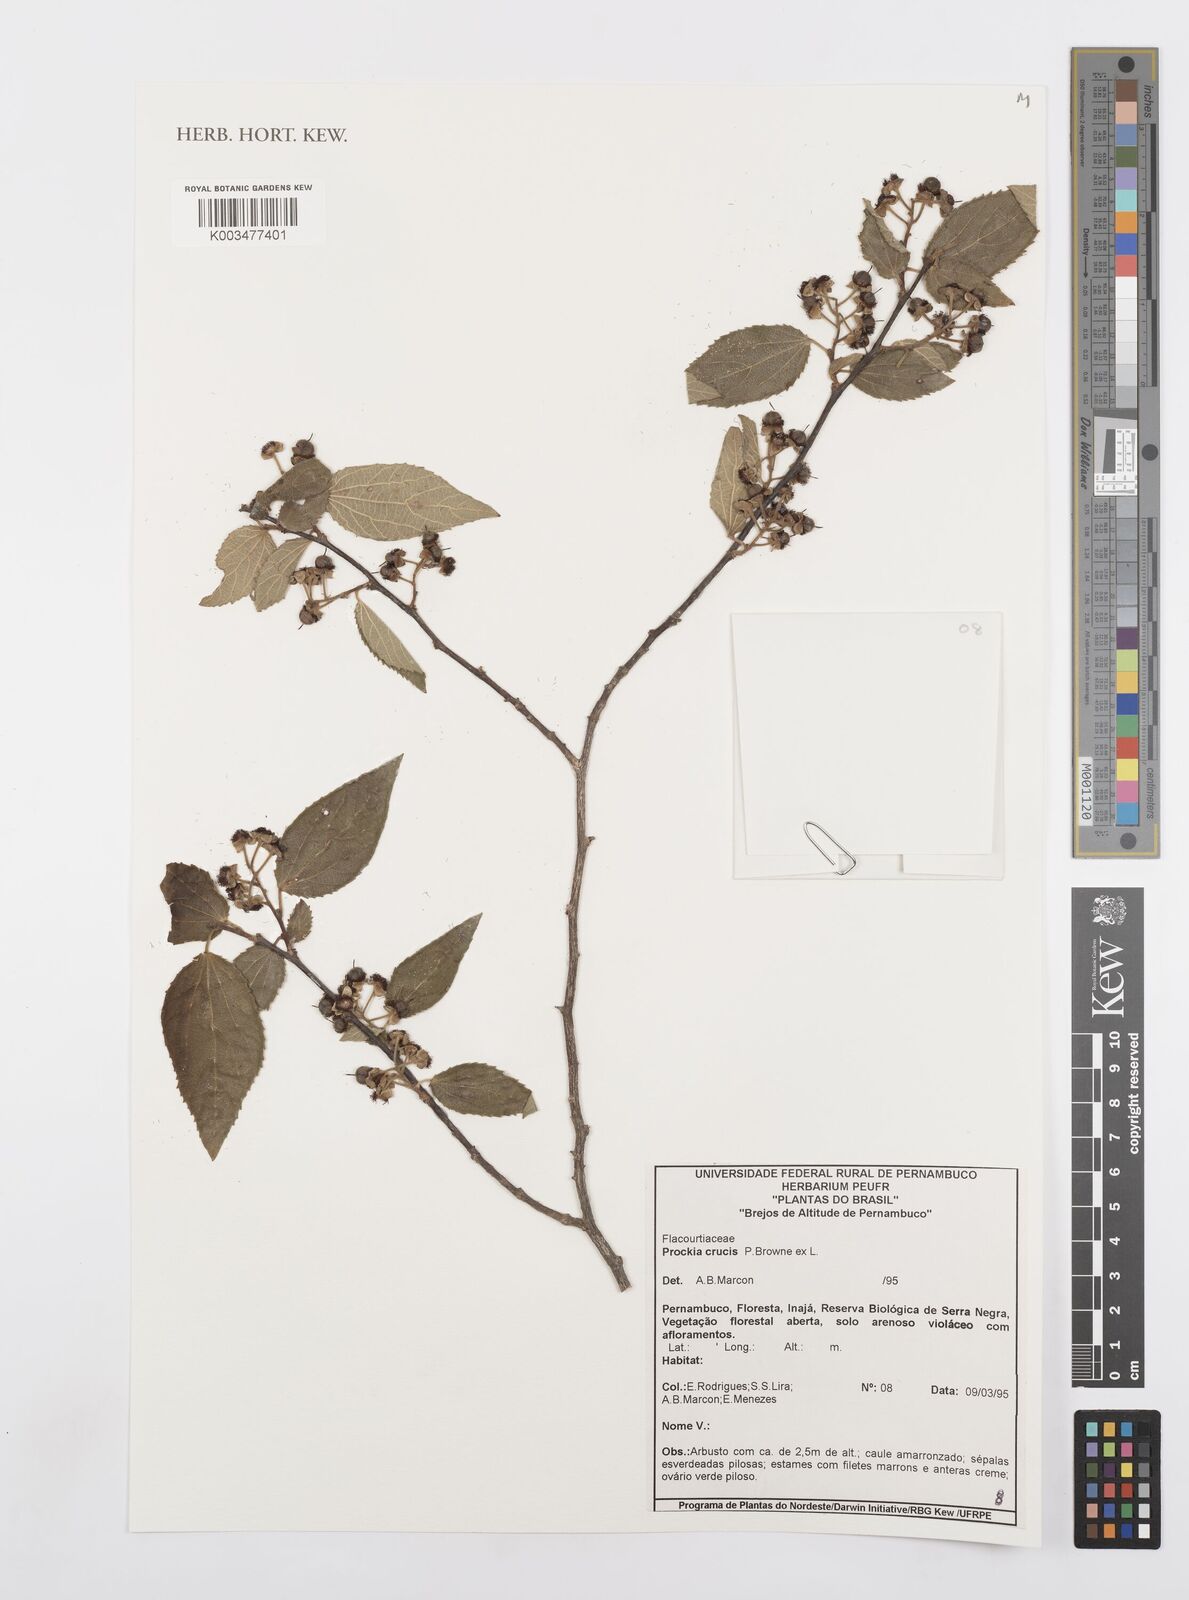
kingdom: Plantae
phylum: Tracheophyta
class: Magnoliopsida
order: Malpighiales
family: Salicaceae
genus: Prockia
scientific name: Prockia crucis
